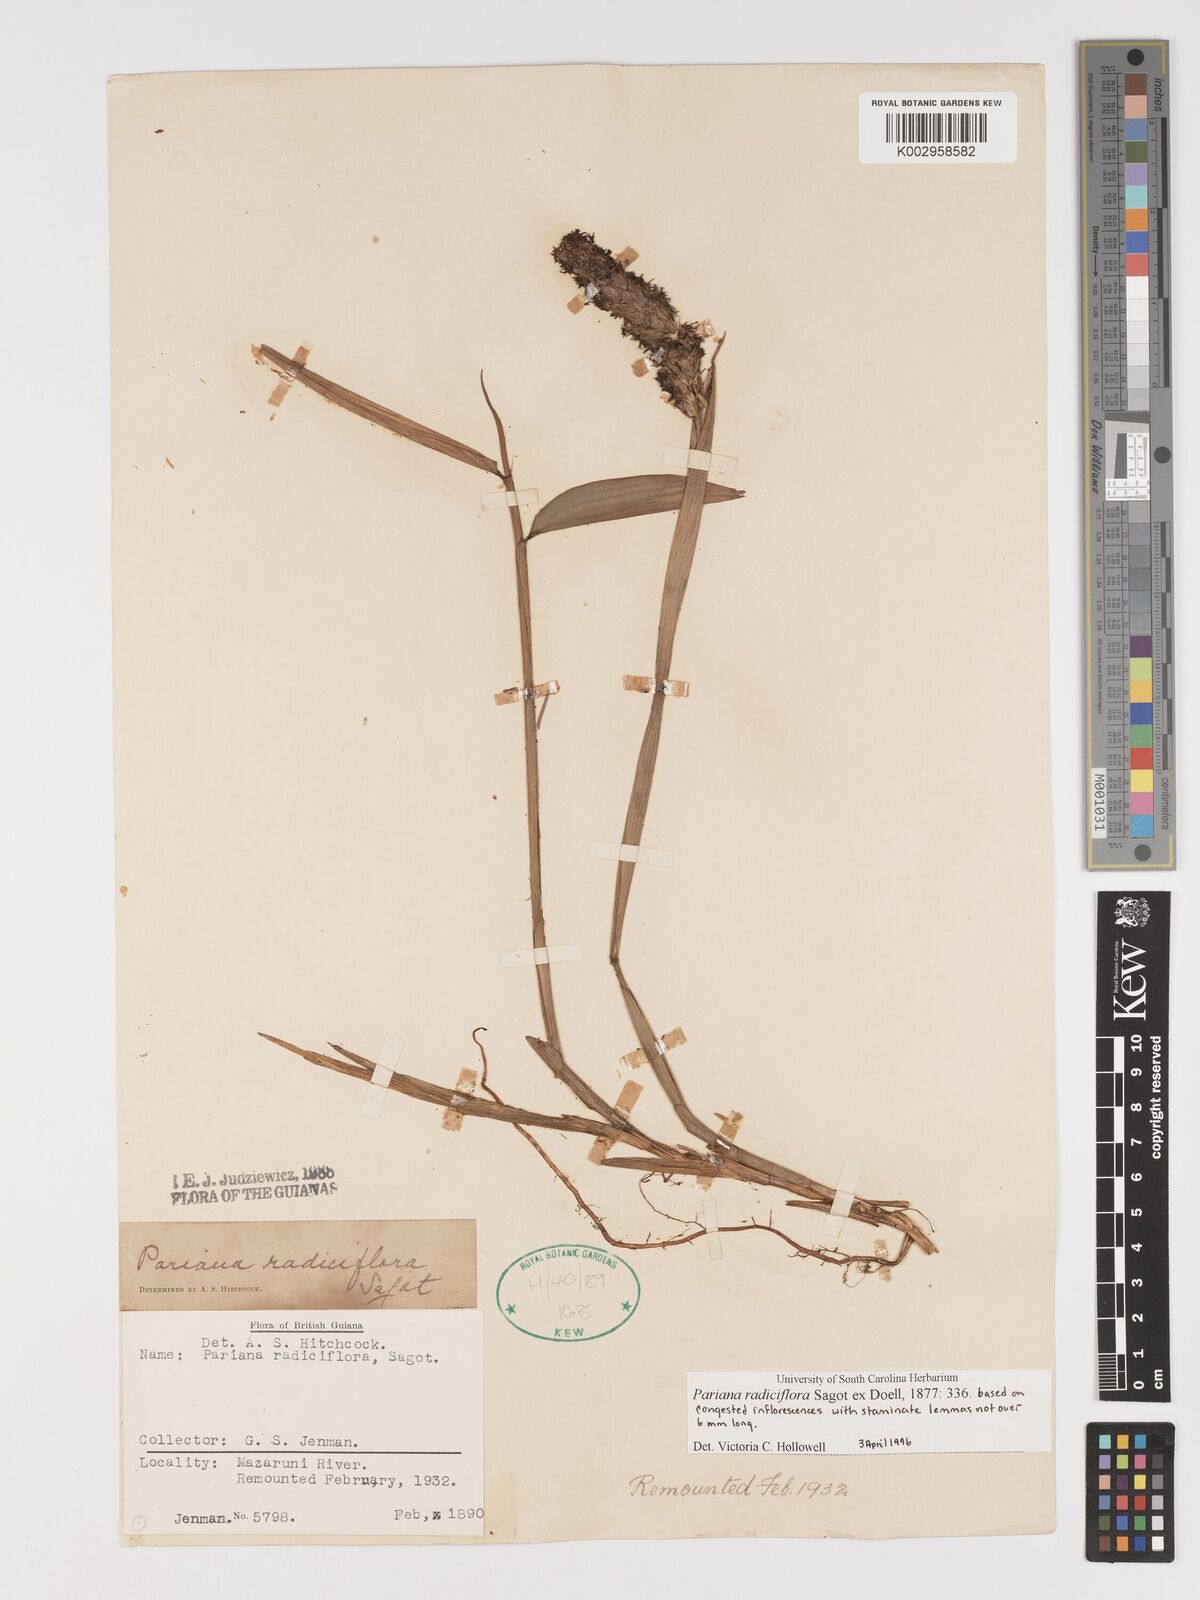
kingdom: Plantae
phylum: Tracheophyta
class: Liliopsida
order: Poales
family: Poaceae
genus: Pariana
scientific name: Pariana radiciflora
